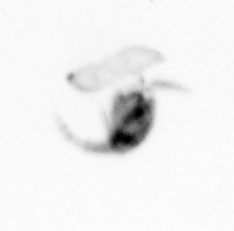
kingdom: Animalia
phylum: Arthropoda
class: Copepoda
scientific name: Copepoda
